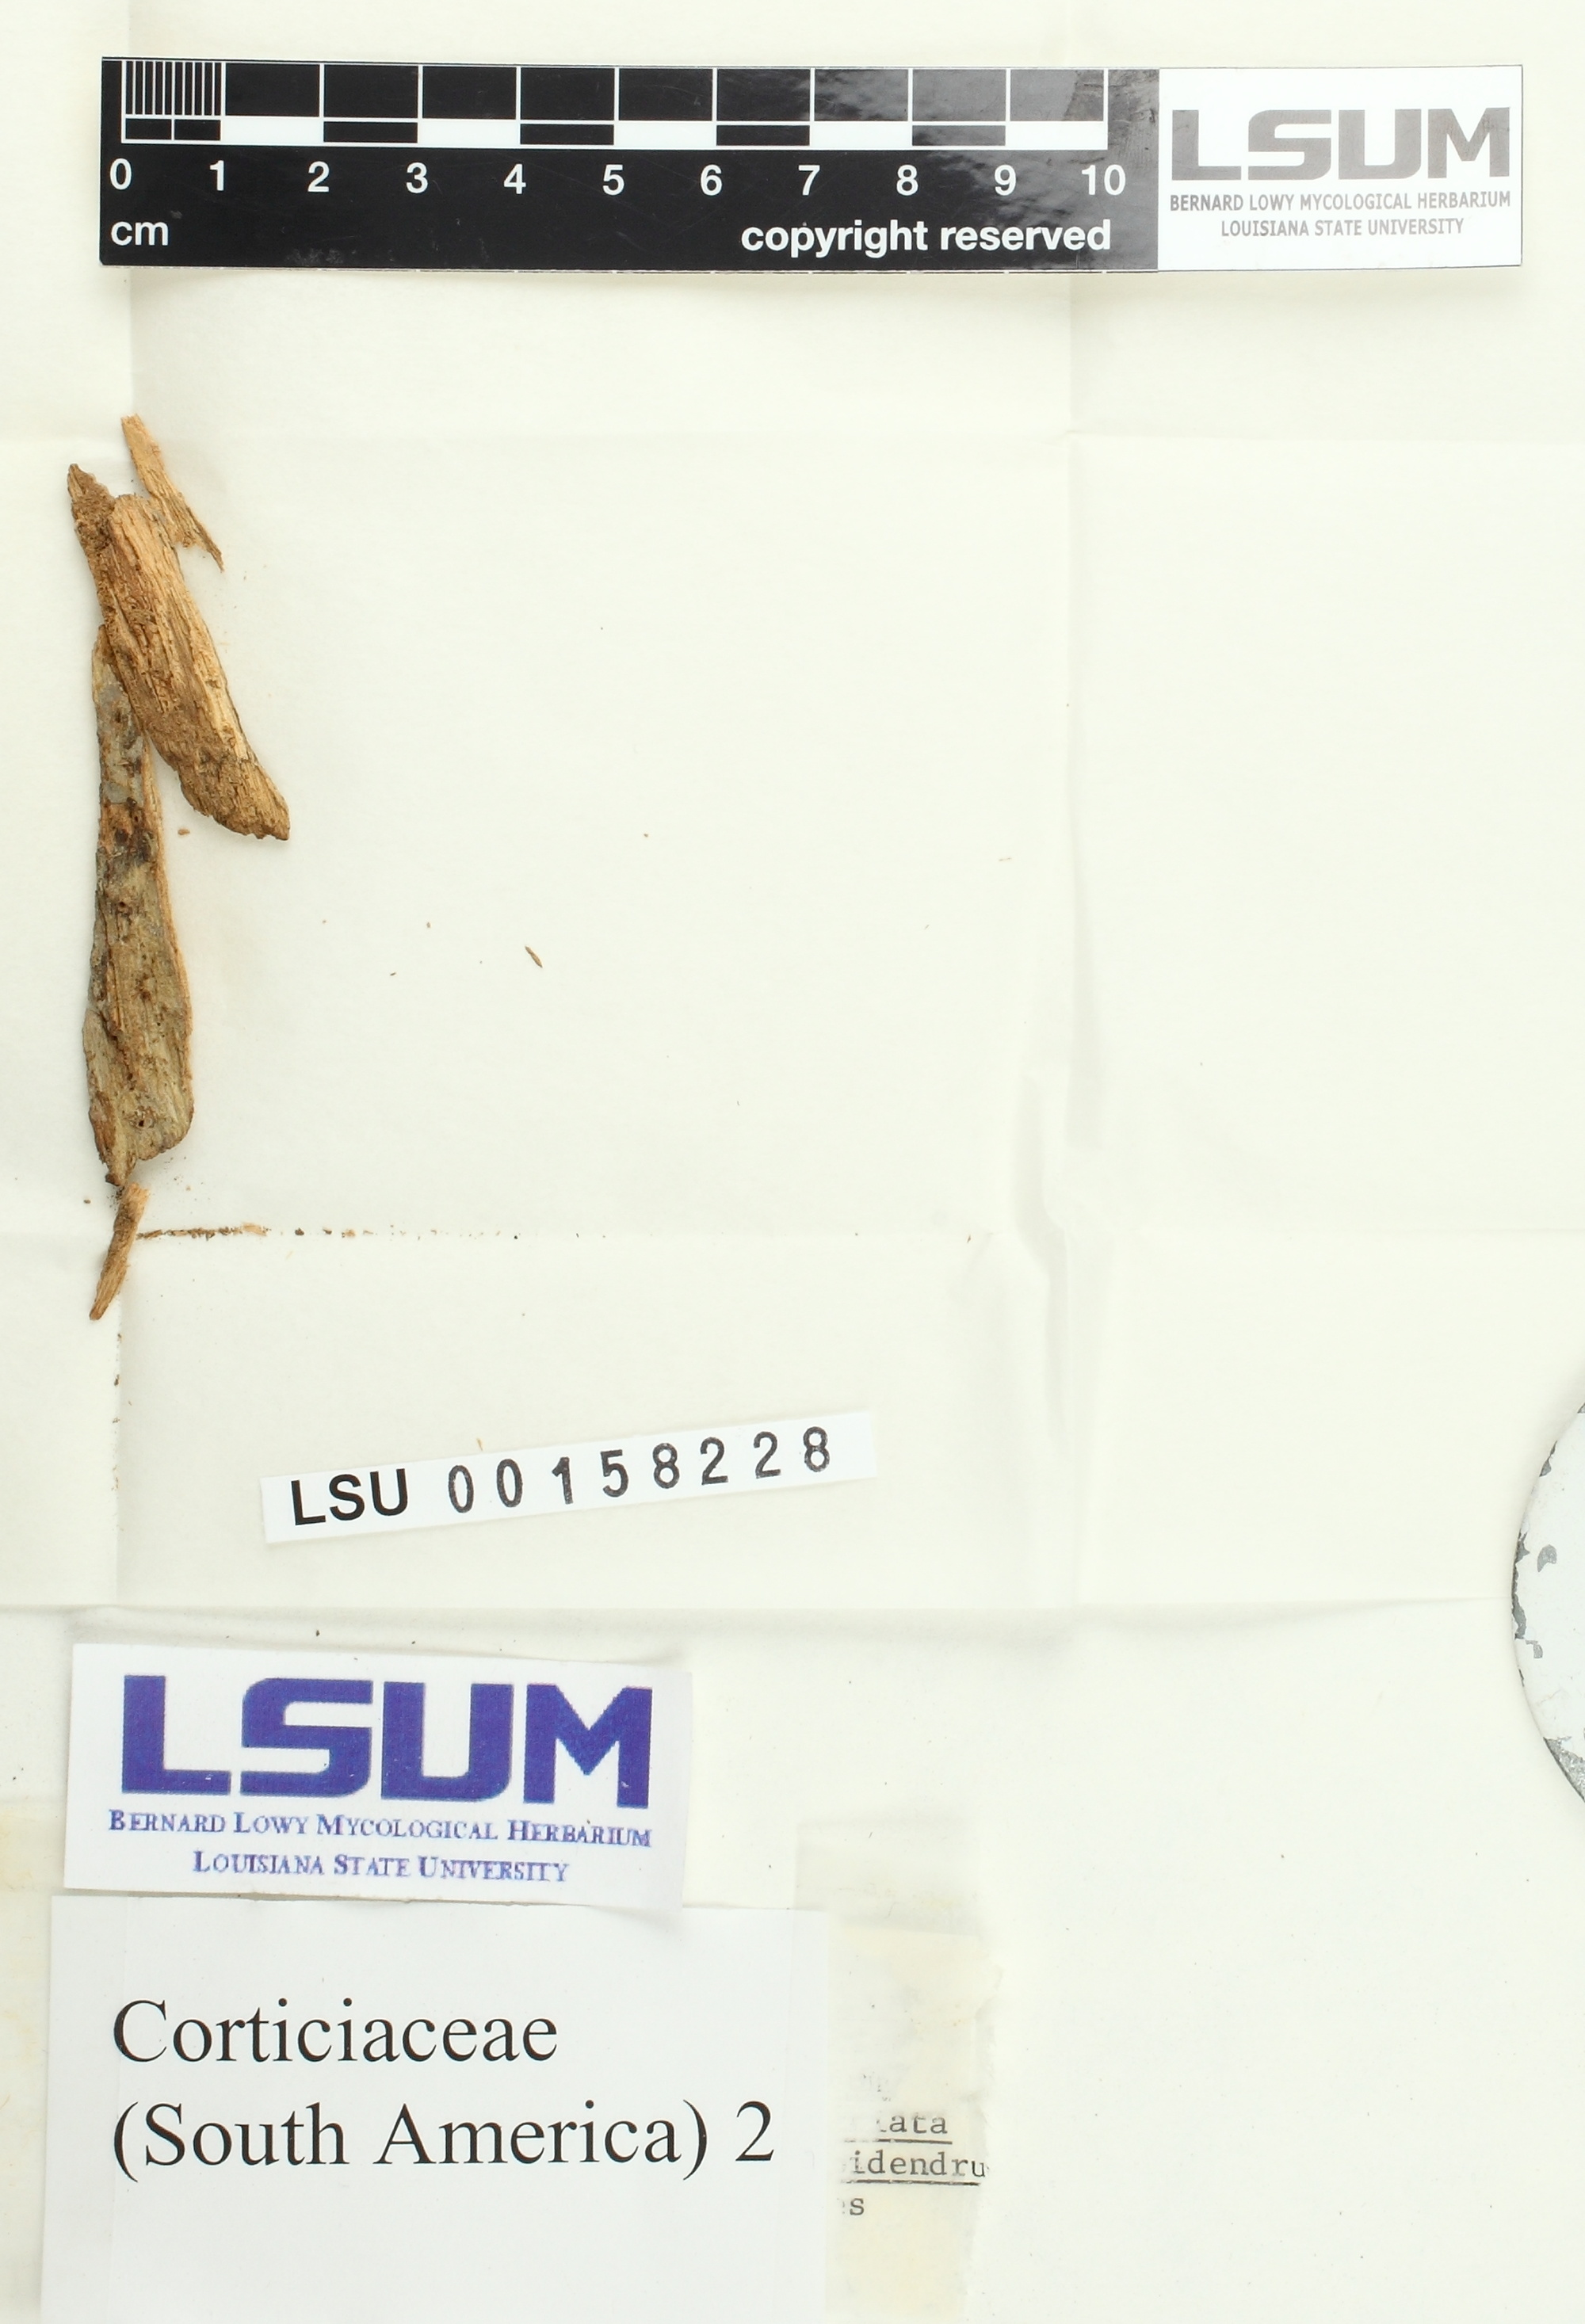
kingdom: Fungi
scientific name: Fungi
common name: Fungi
